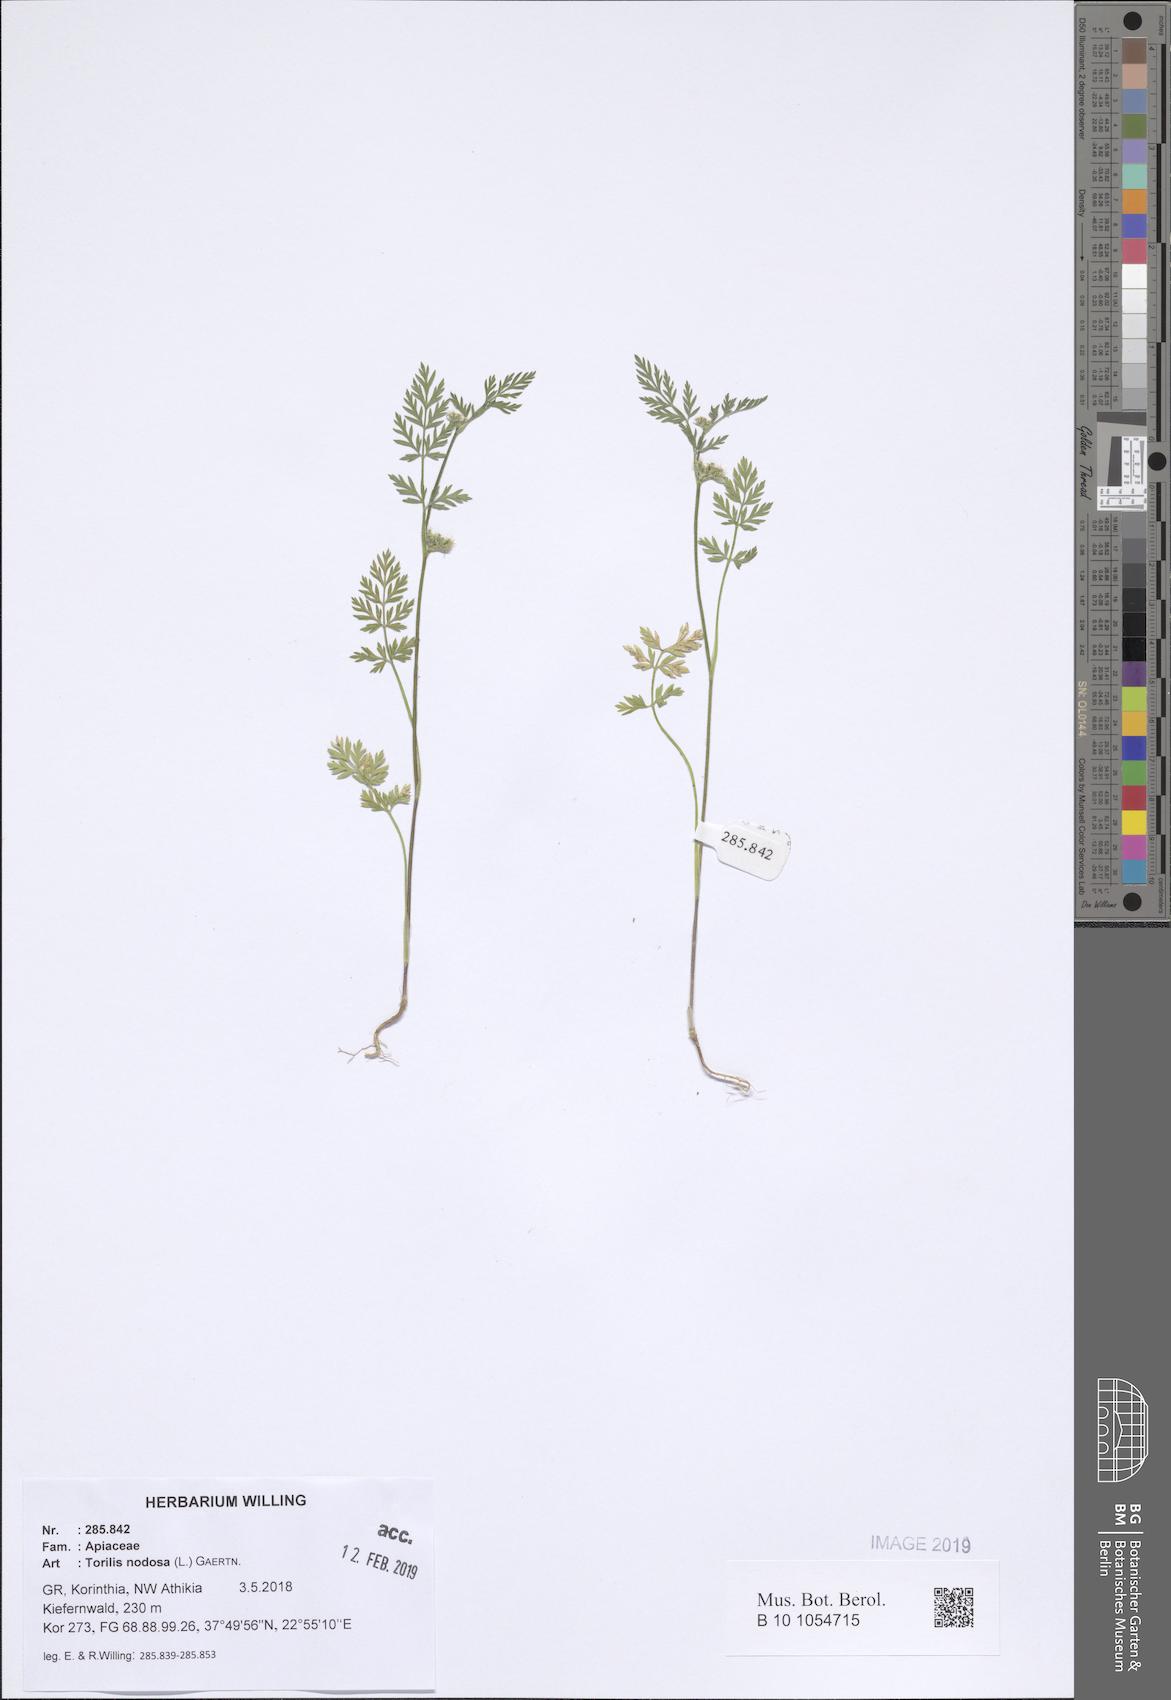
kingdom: Plantae
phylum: Tracheophyta
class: Magnoliopsida
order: Apiales
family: Apiaceae
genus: Torilis
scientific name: Torilis nodosa
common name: Knotted hedge-parsley
